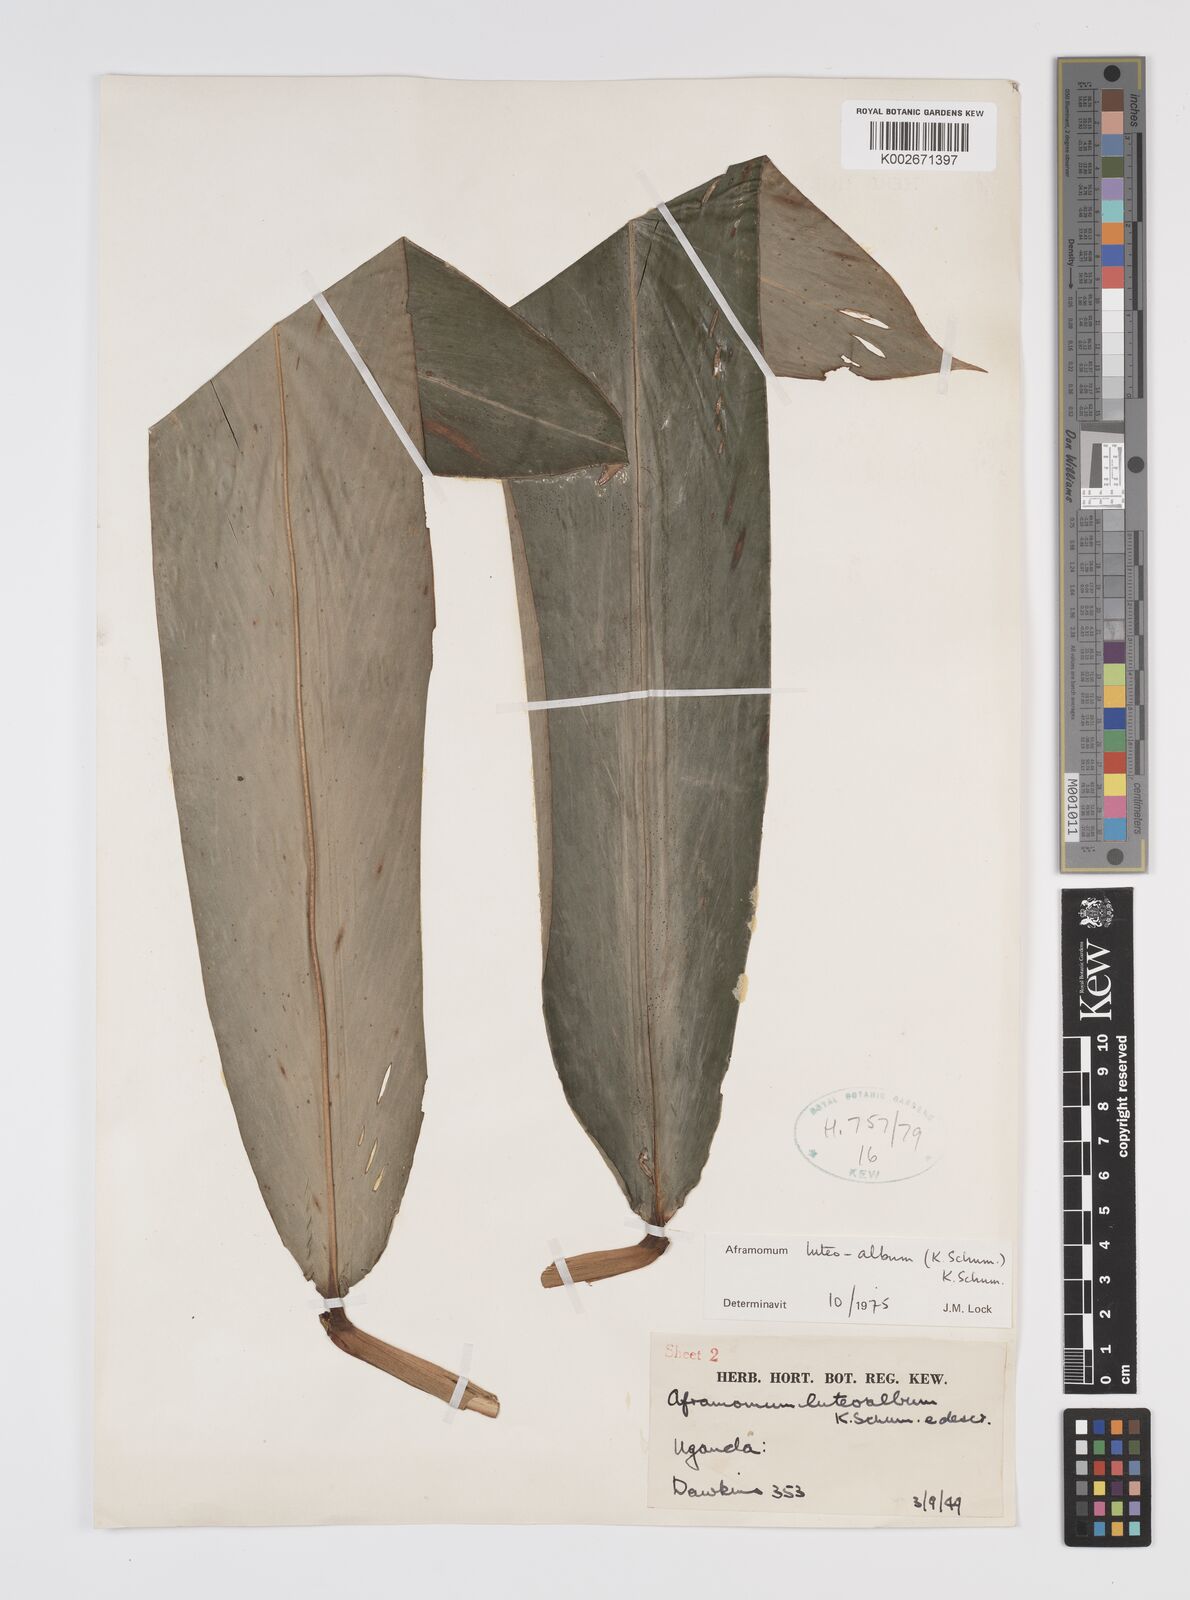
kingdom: Plantae
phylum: Tracheophyta
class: Liliopsida
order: Zingiberales
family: Zingiberaceae
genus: Aframomum
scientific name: Aframomum luteoalbum
